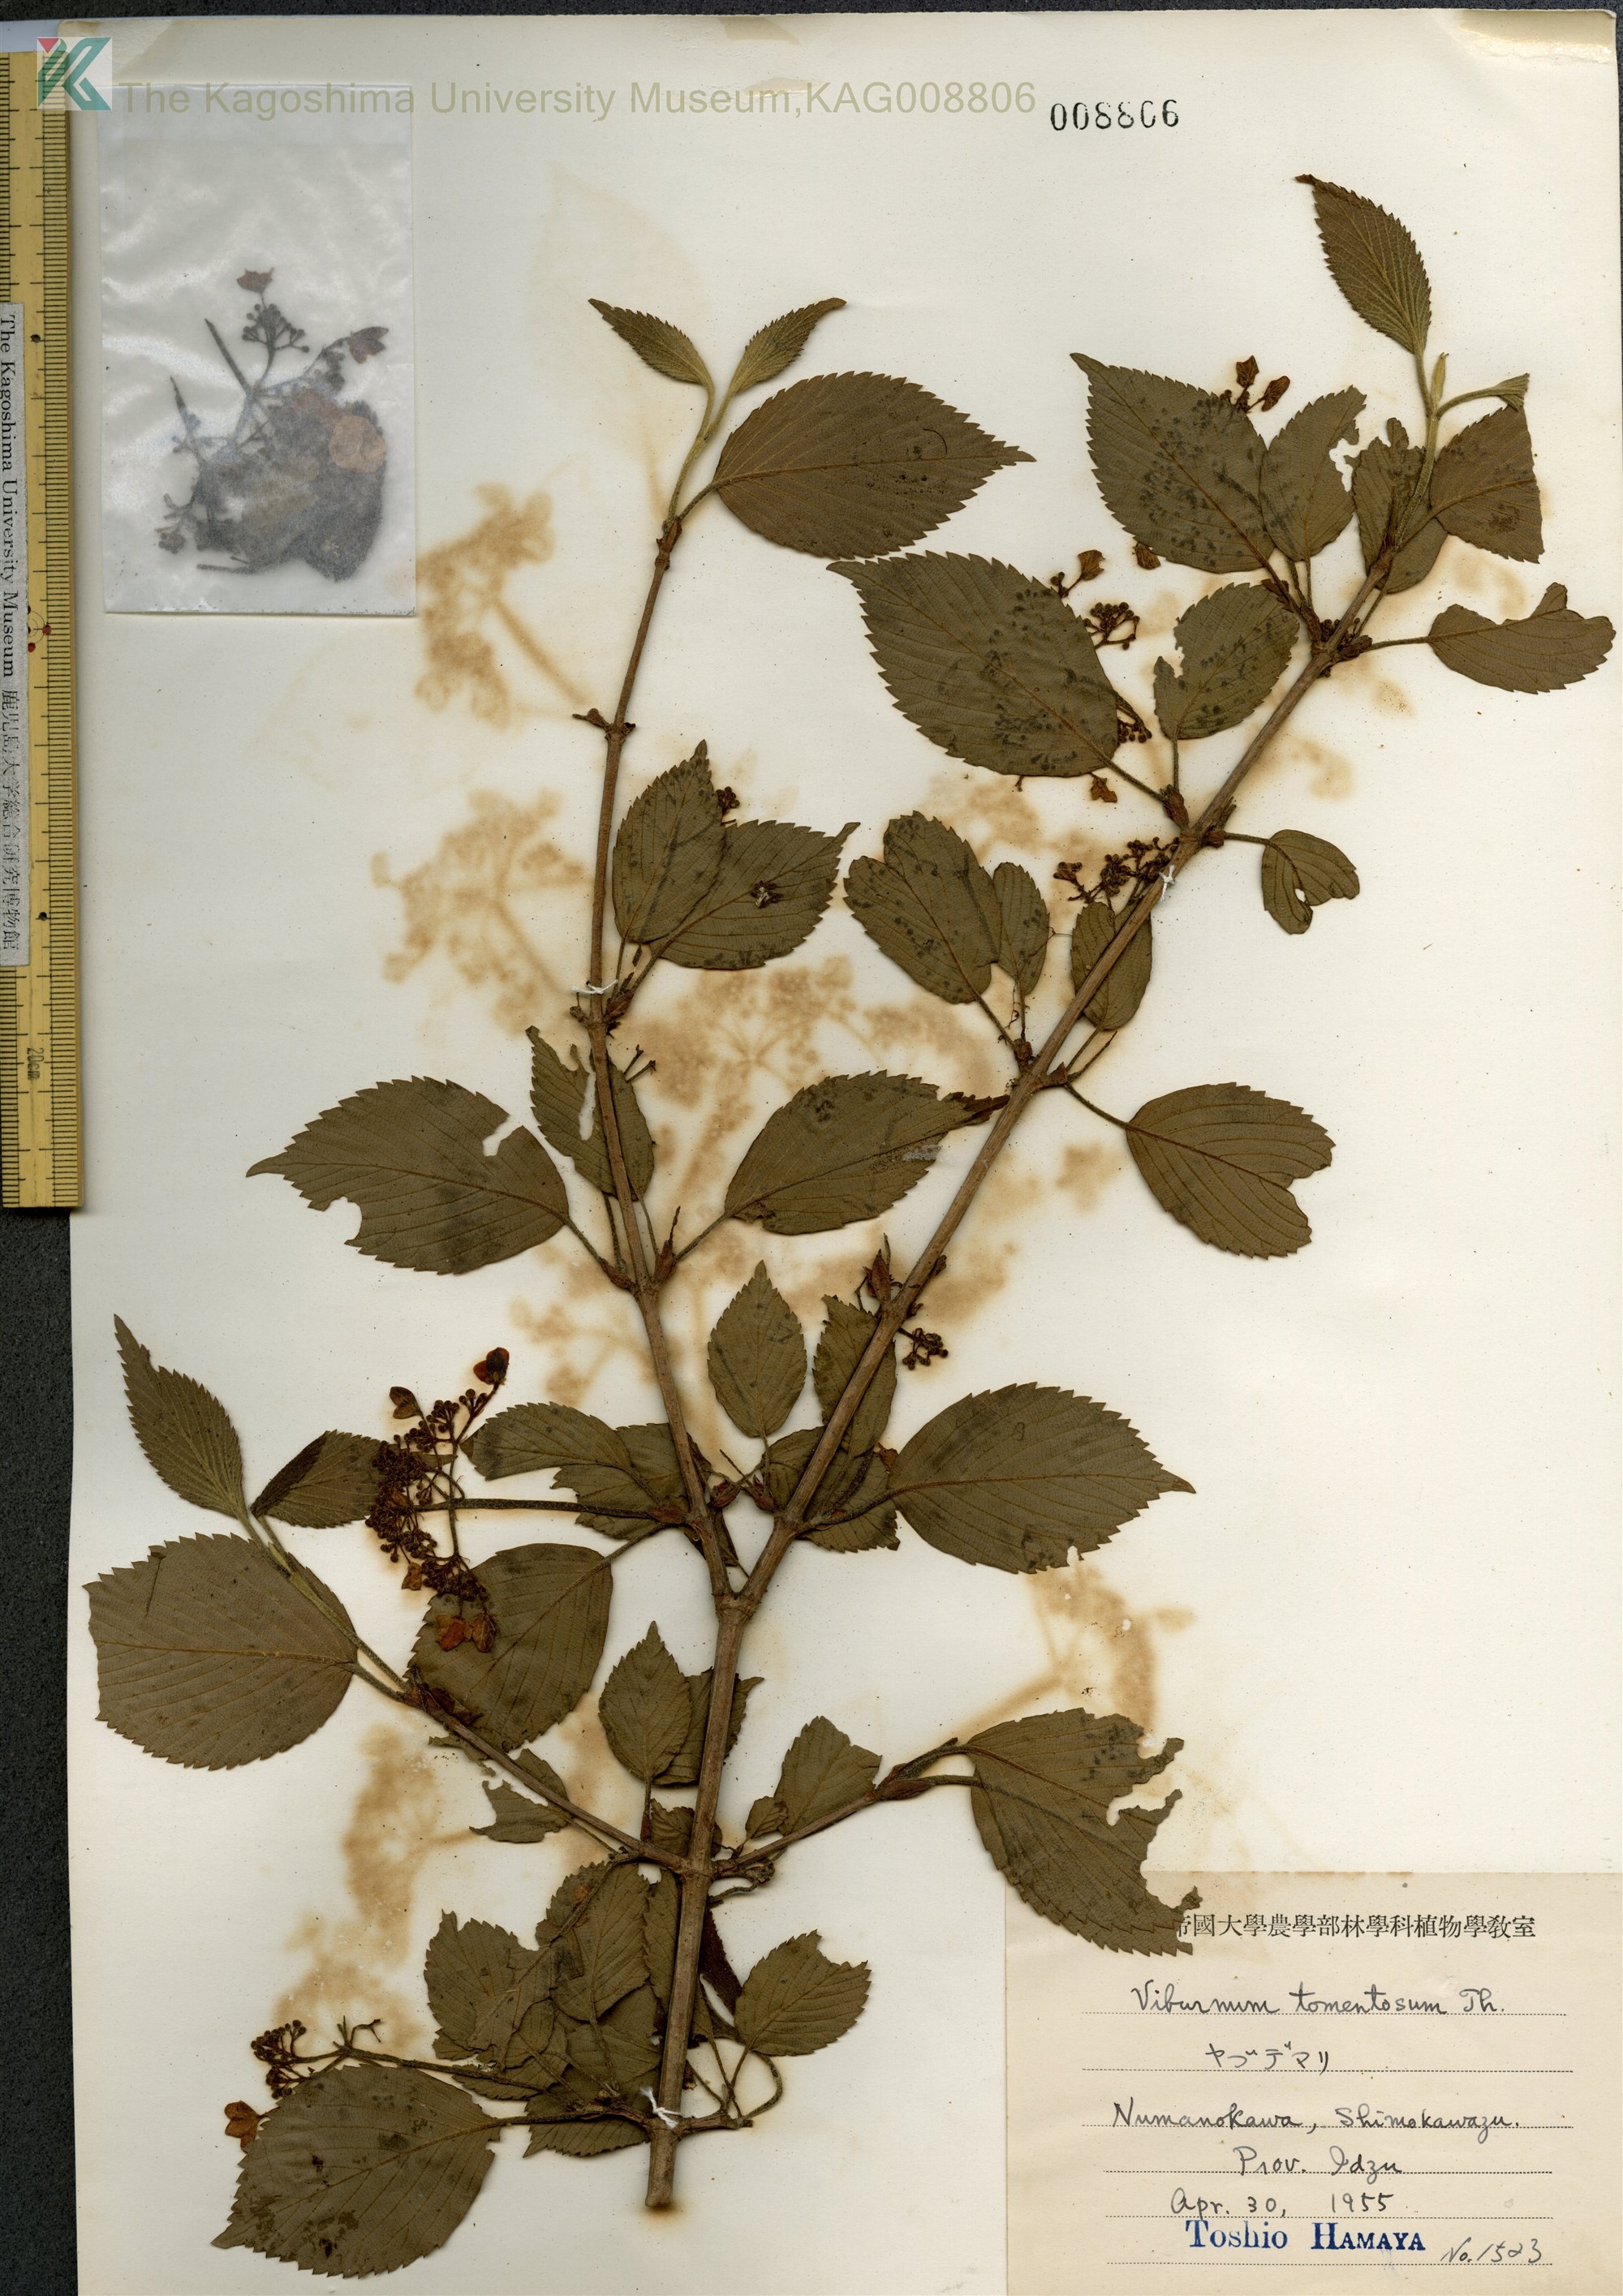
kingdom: Plantae
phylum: Tracheophyta
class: Magnoliopsida
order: Dipsacales
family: Viburnaceae
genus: Viburnum
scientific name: Viburnum plicatum
